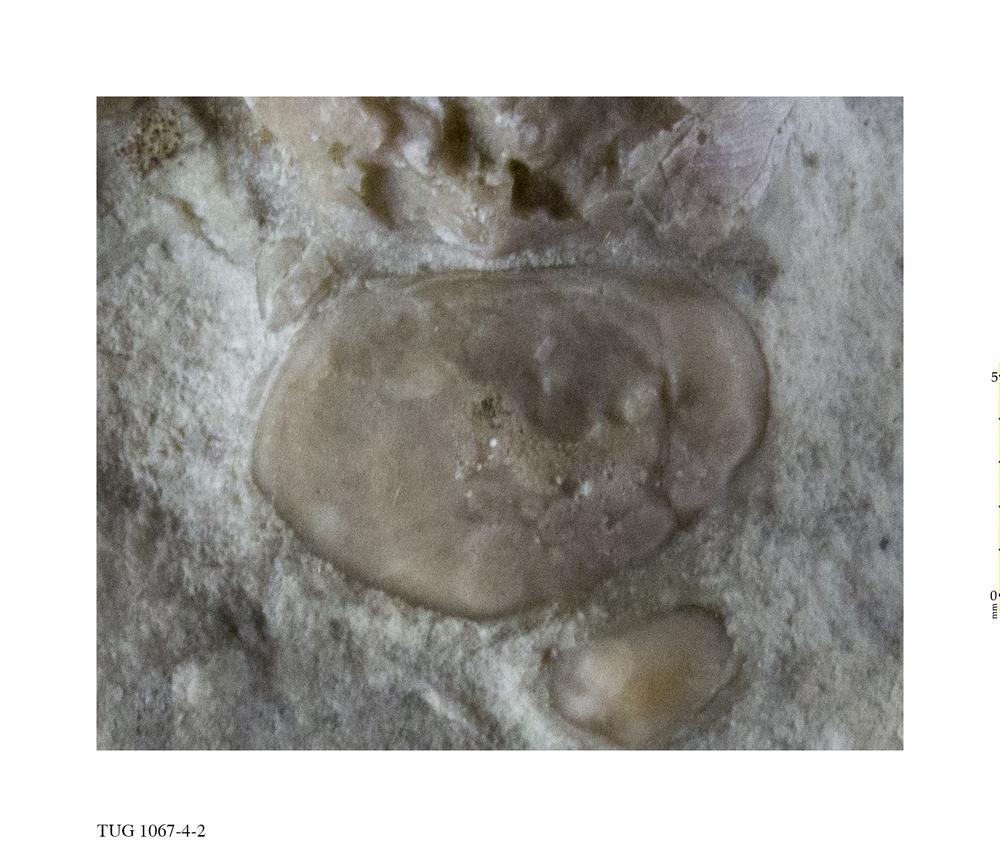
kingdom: Animalia
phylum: Arthropoda
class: Ostracoda
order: Platycopida
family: Leperditiidae
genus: Leperditia
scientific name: Leperditia
